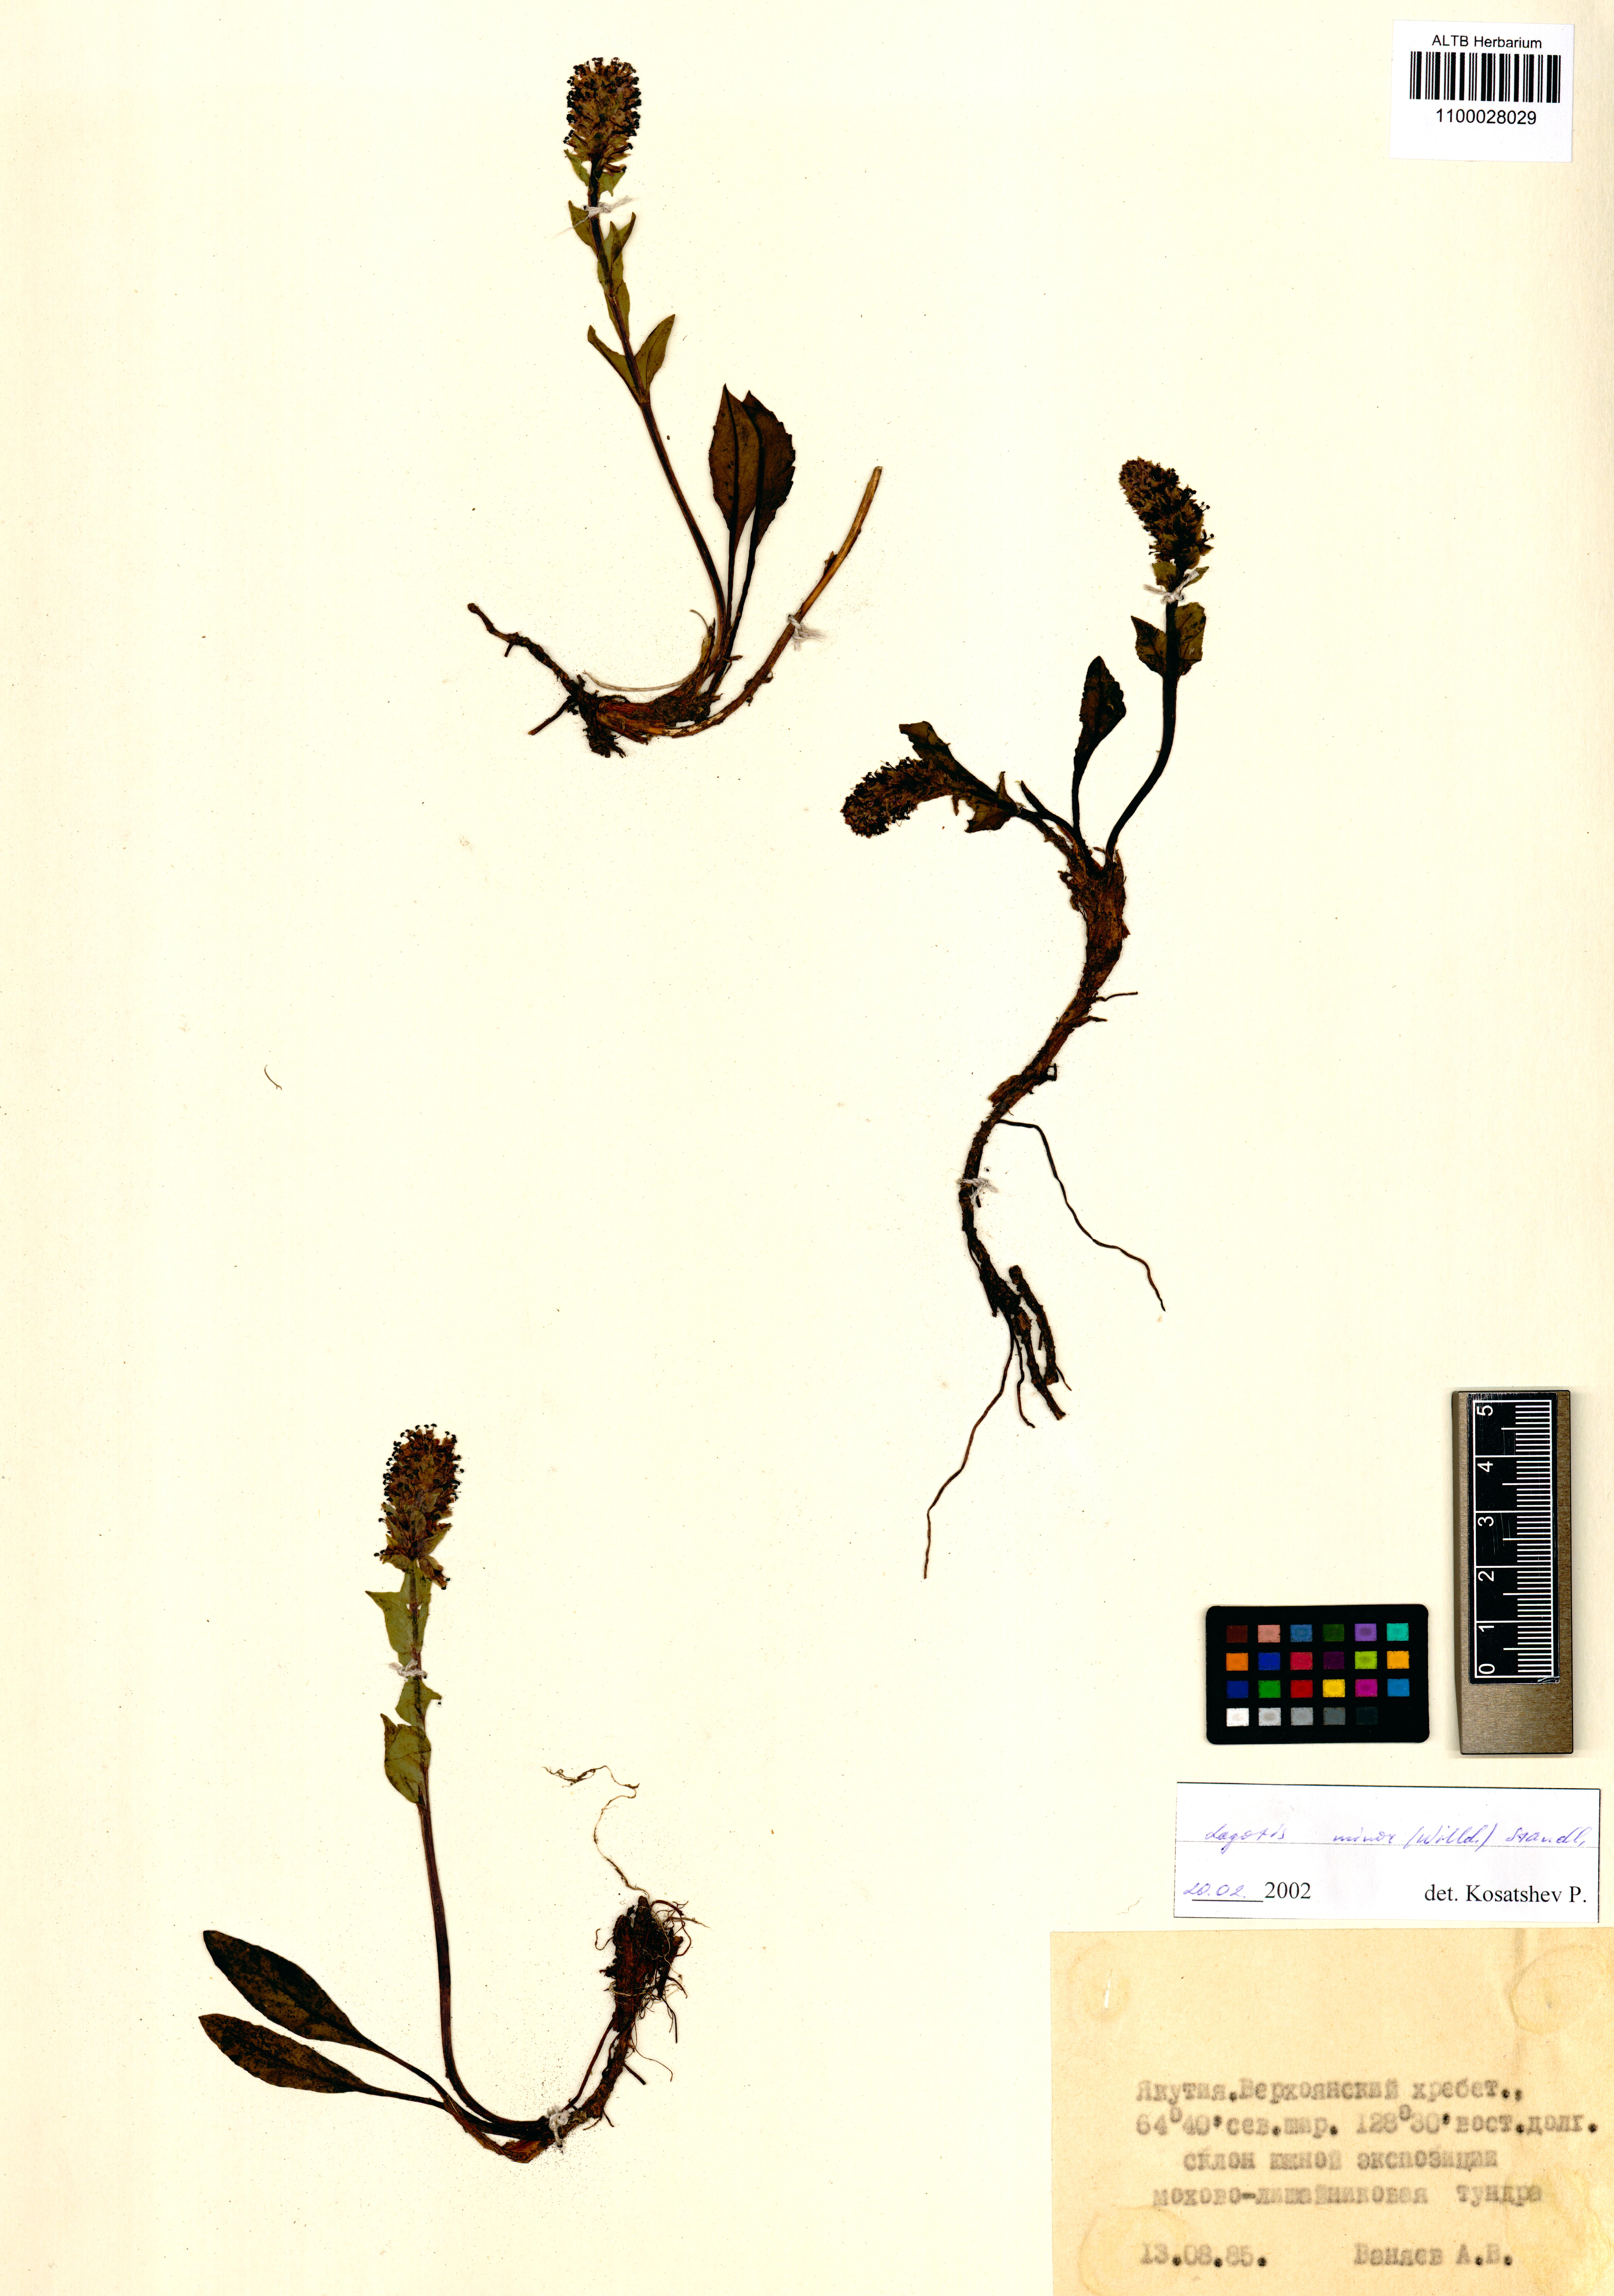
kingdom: Plantae
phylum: Tracheophyta
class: Magnoliopsida
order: Lamiales
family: Plantaginaceae
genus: Lagotis
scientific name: Lagotis glauca
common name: Glaucous weaselsnout
